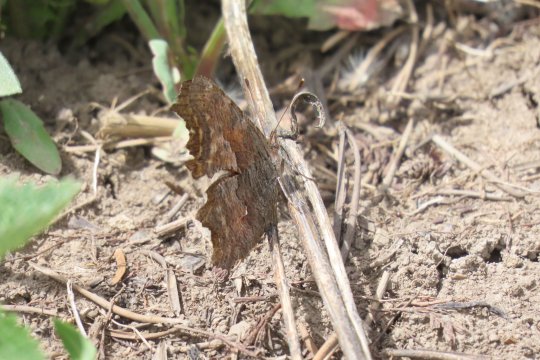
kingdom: Animalia
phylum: Arthropoda
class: Insecta
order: Lepidoptera
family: Nymphalidae
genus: Polygonia
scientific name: Polygonia gracilis
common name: Hoary Comma
